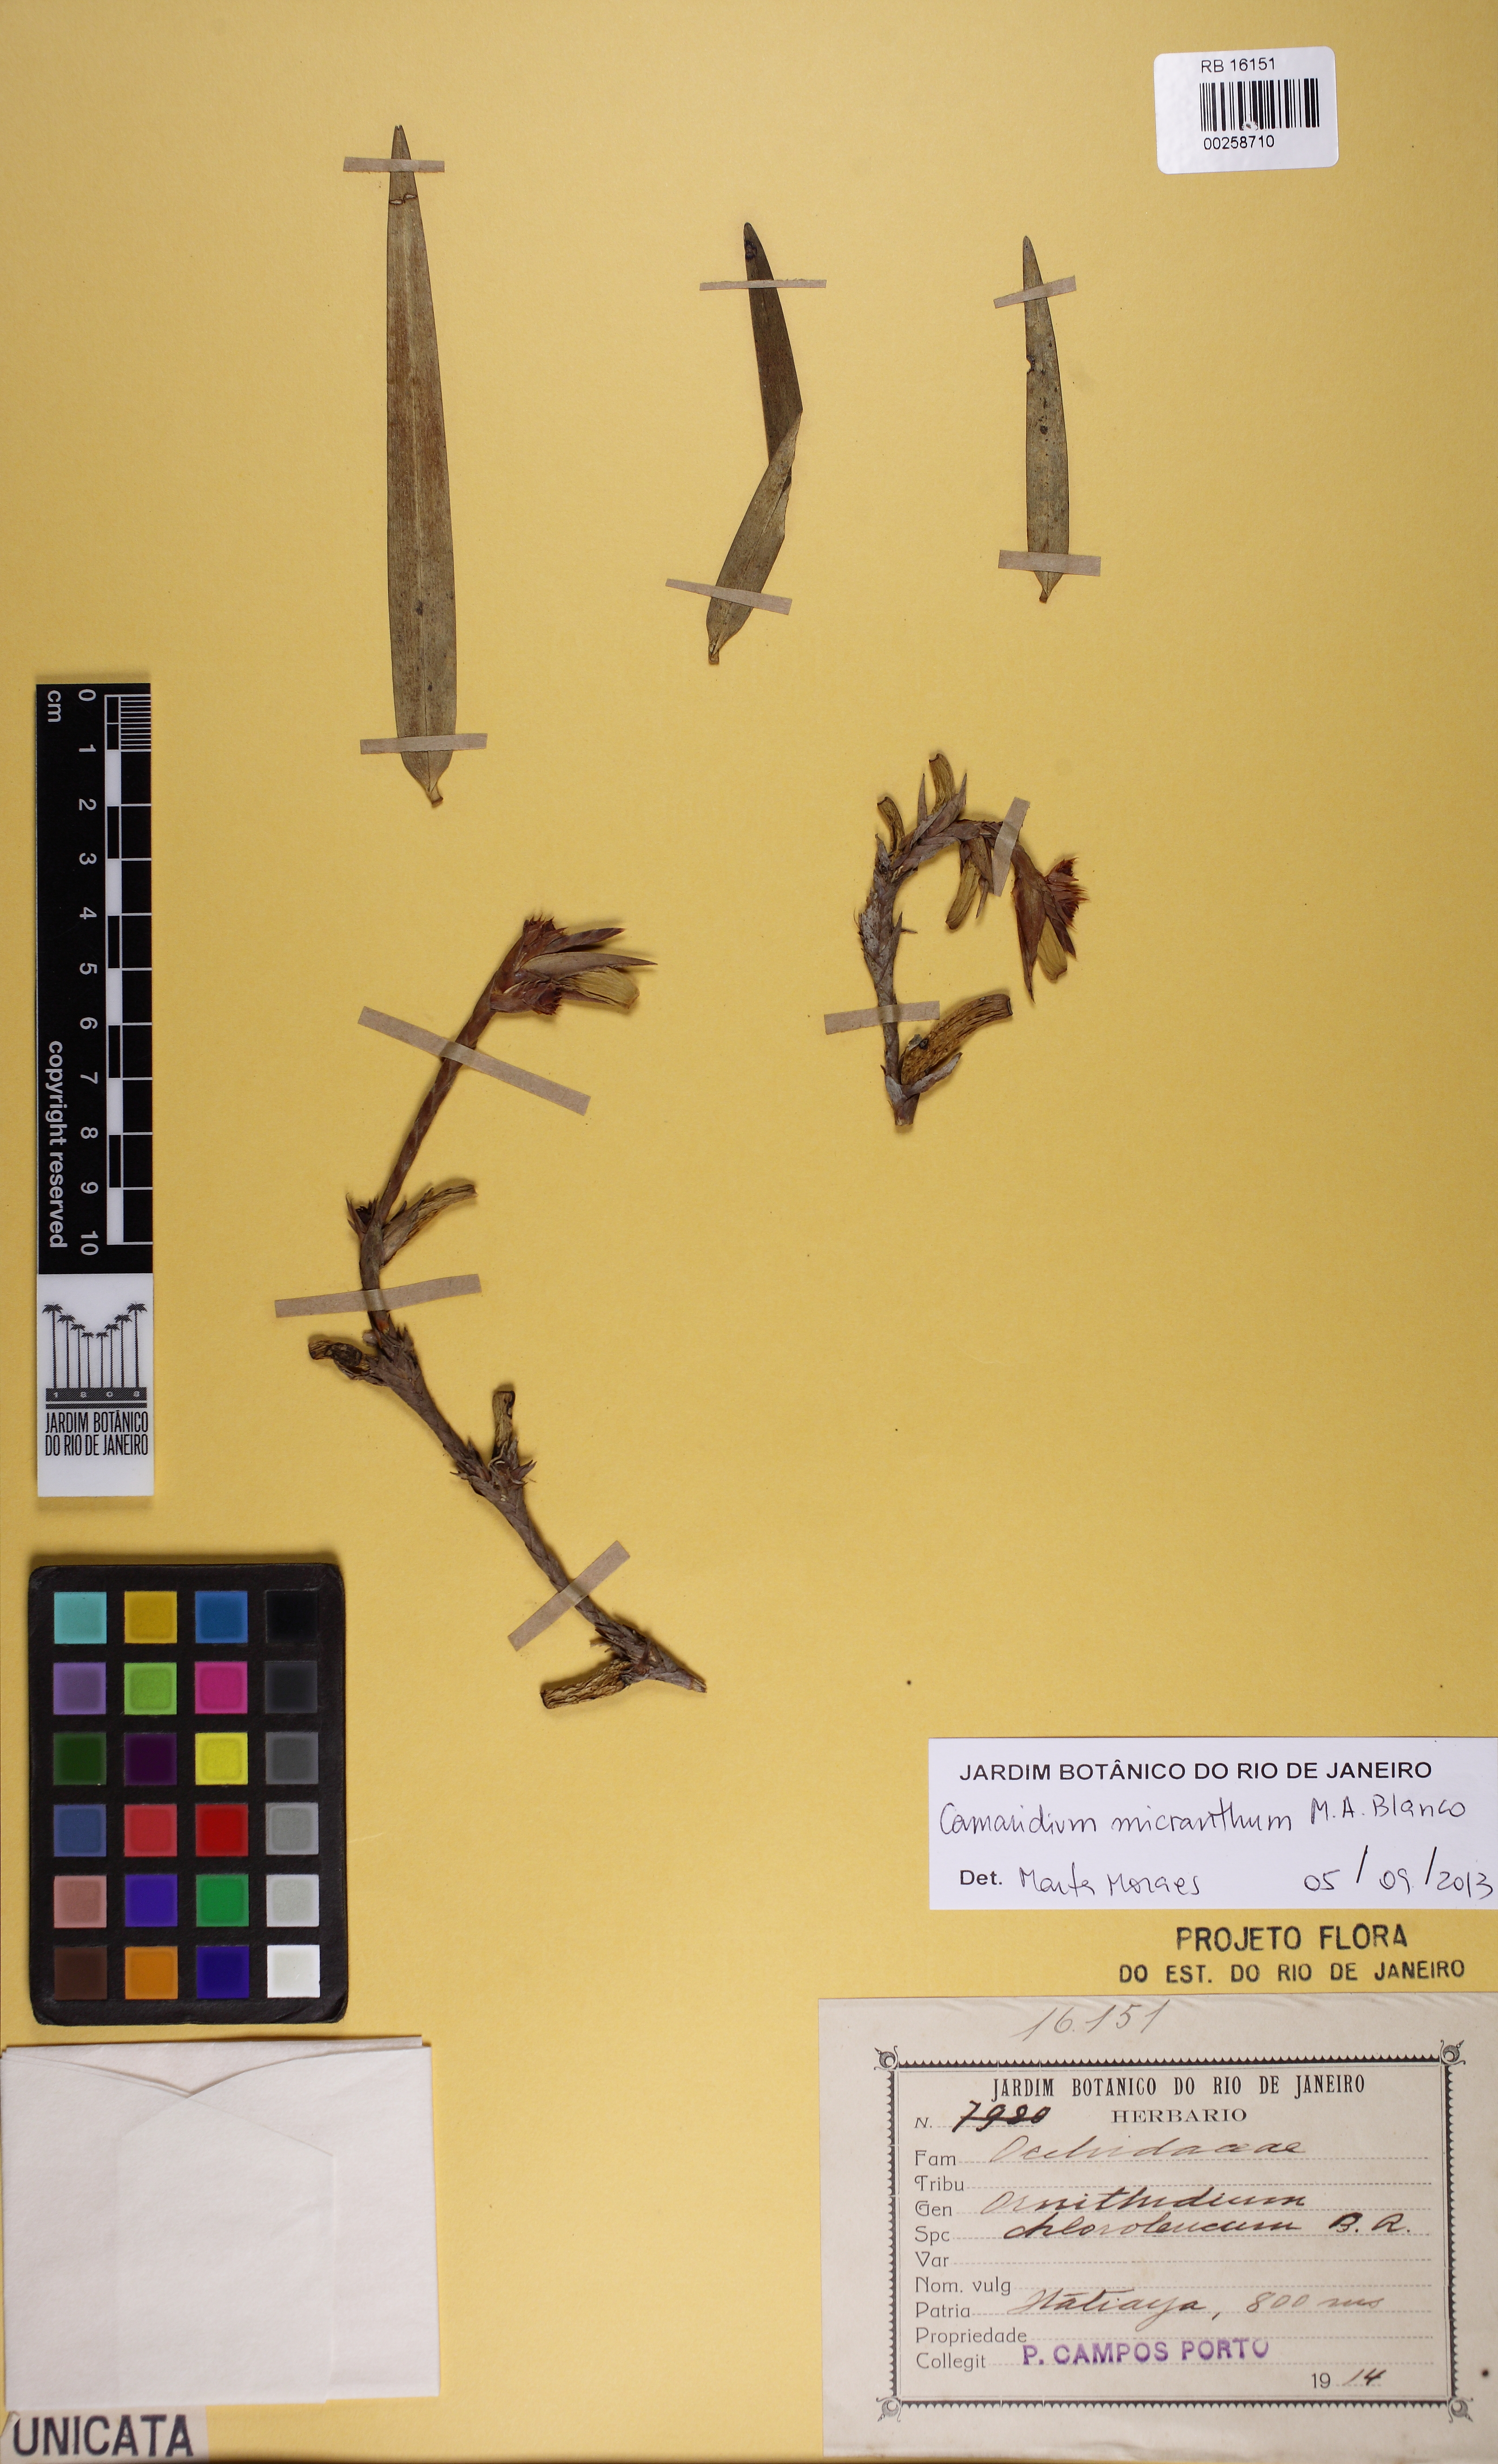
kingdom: Plantae
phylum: Tracheophyta
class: Liliopsida
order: Asparagales
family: Orchidaceae
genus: Maxillaria
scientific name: Maxillaria parviflora
